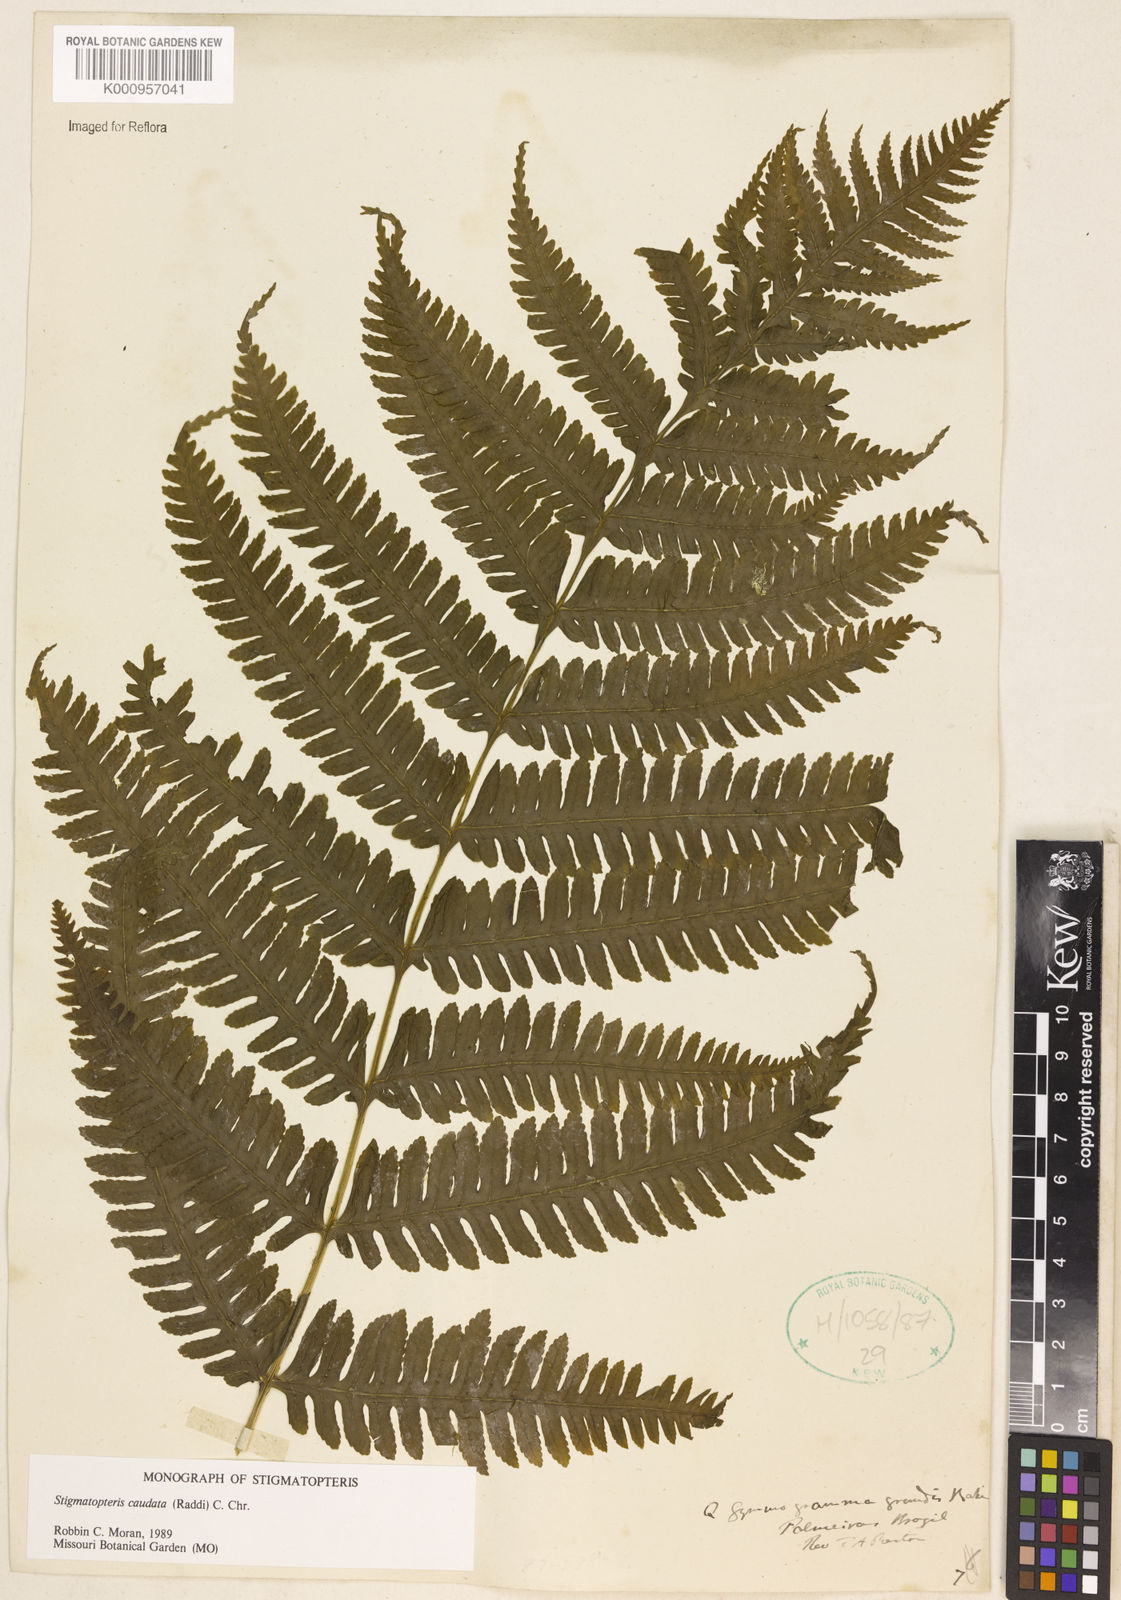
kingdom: Plantae
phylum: Tracheophyta
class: Polypodiopsida
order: Polypodiales
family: Dryopteridaceae
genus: Stigmatopteris
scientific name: Stigmatopteris caudata
